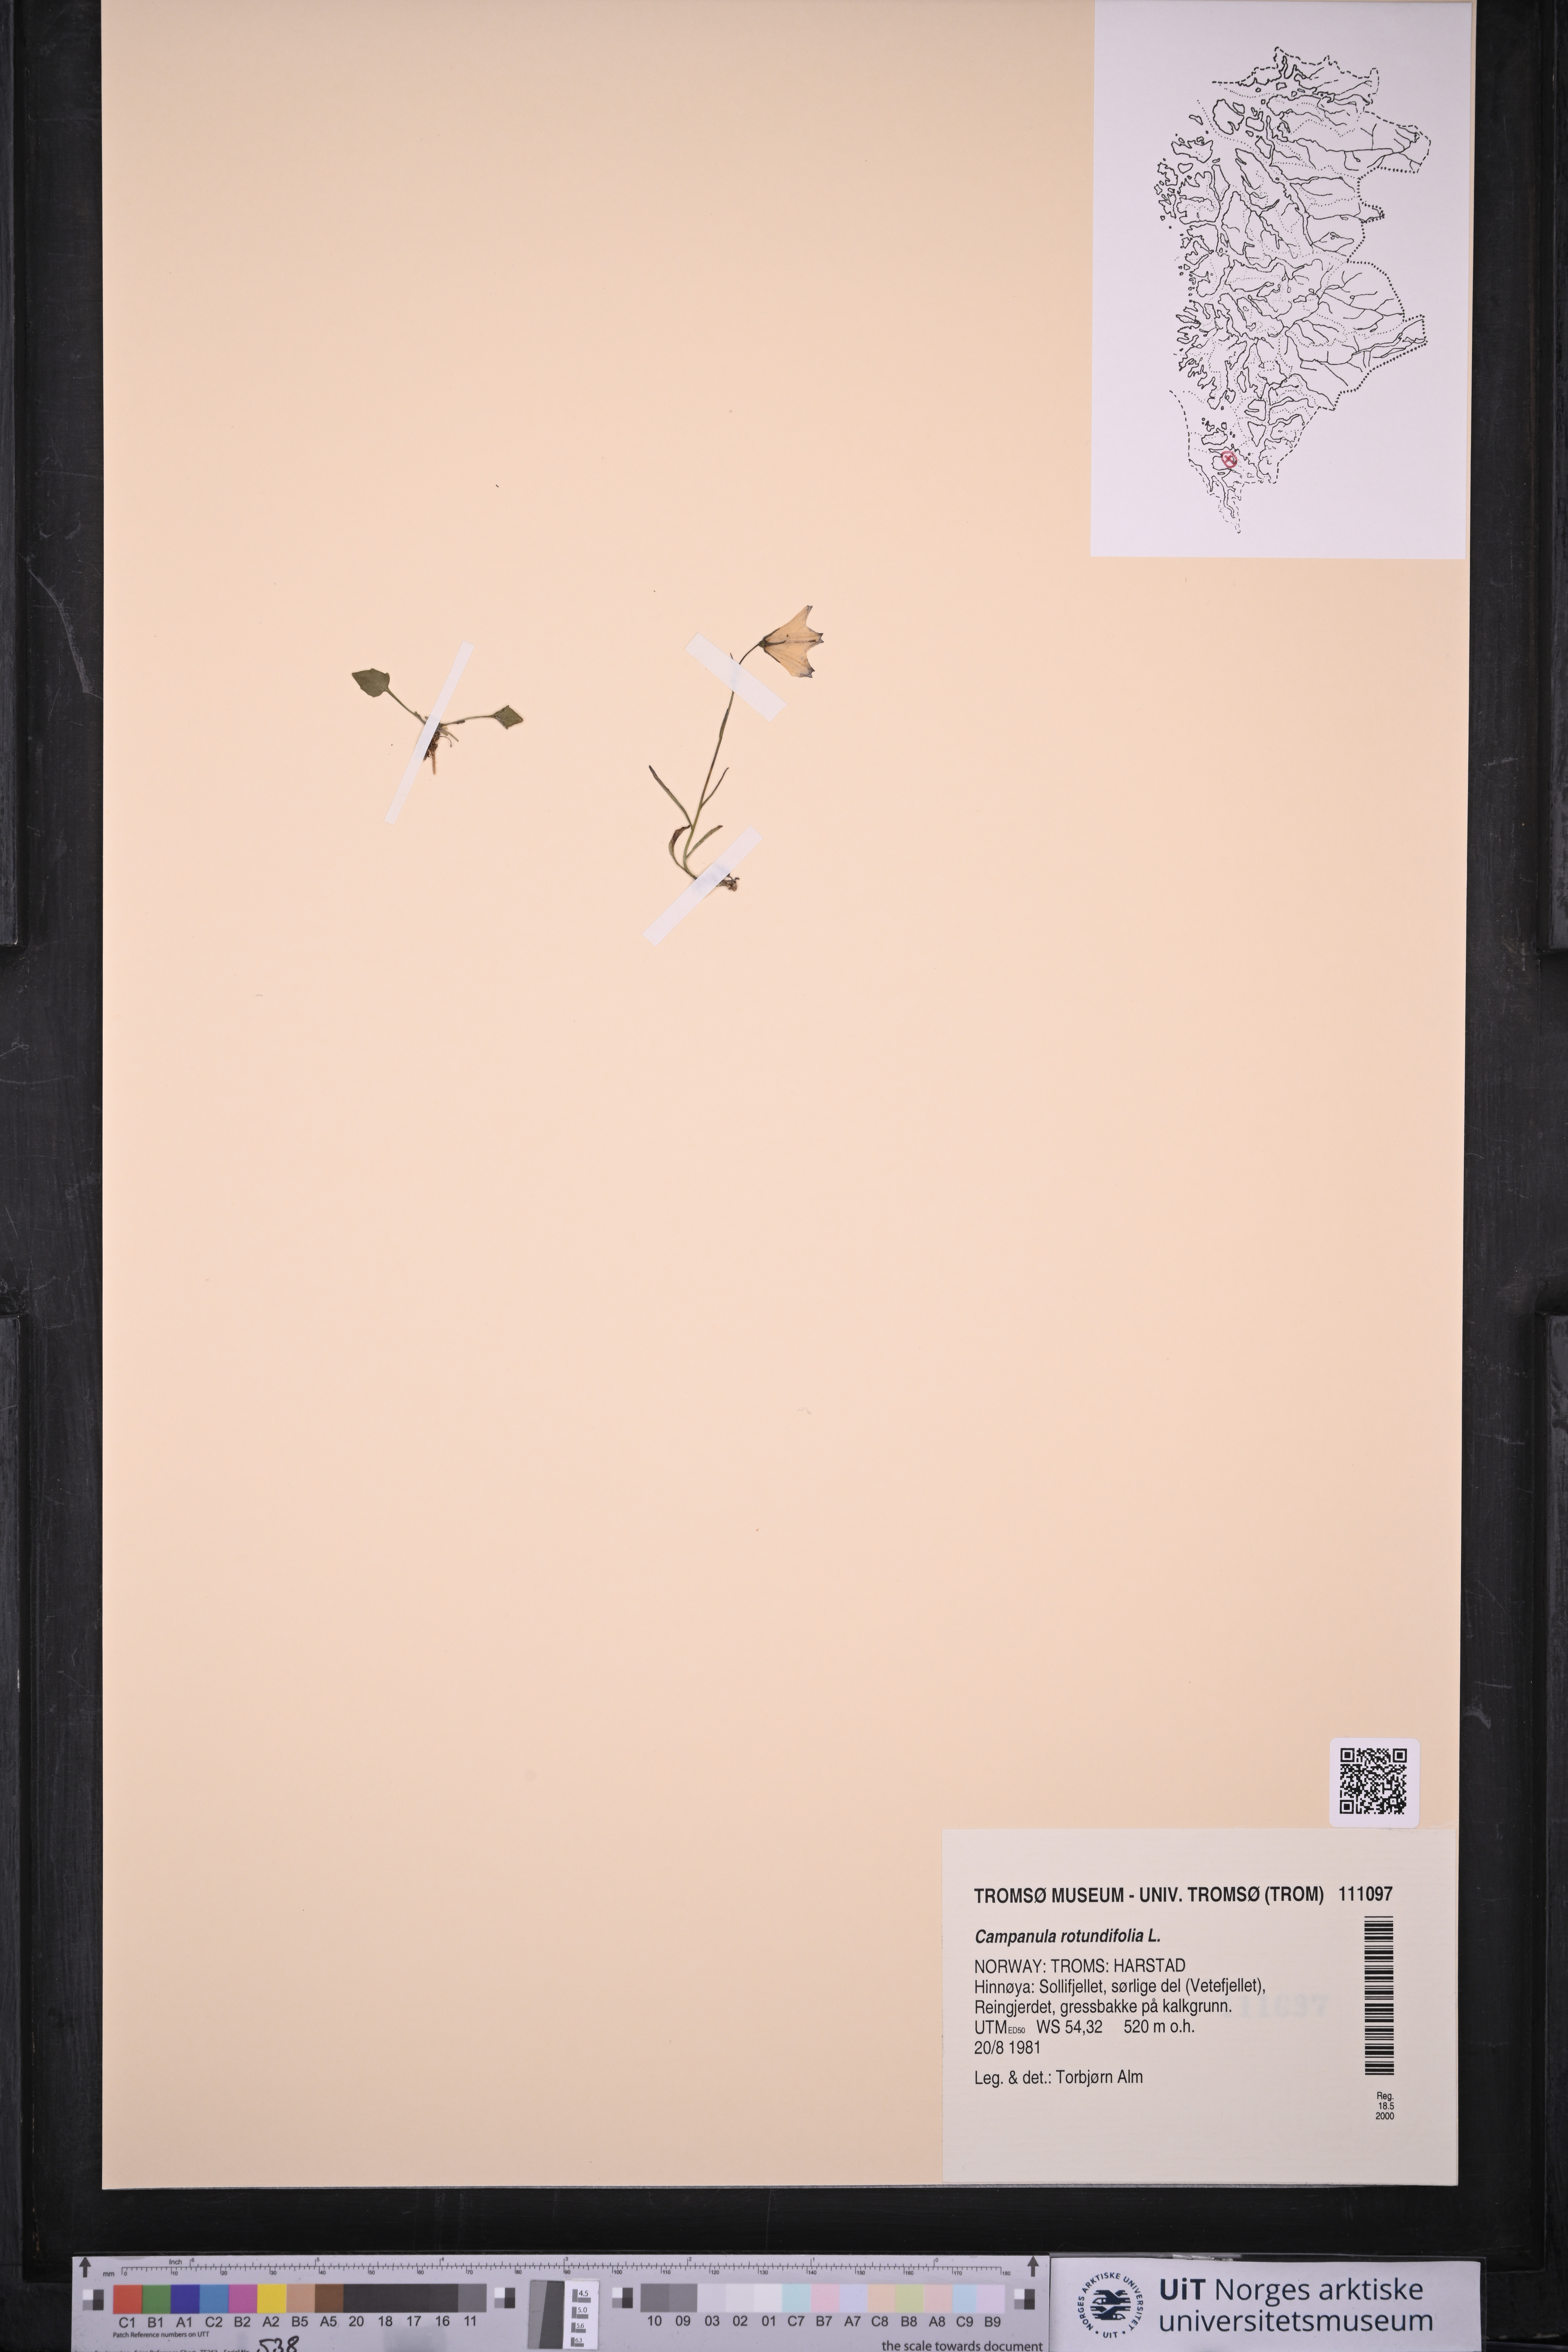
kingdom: Plantae
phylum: Tracheophyta
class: Magnoliopsida
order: Asterales
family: Campanulaceae
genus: Campanula
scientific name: Campanula rotundifolia
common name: Harebell
